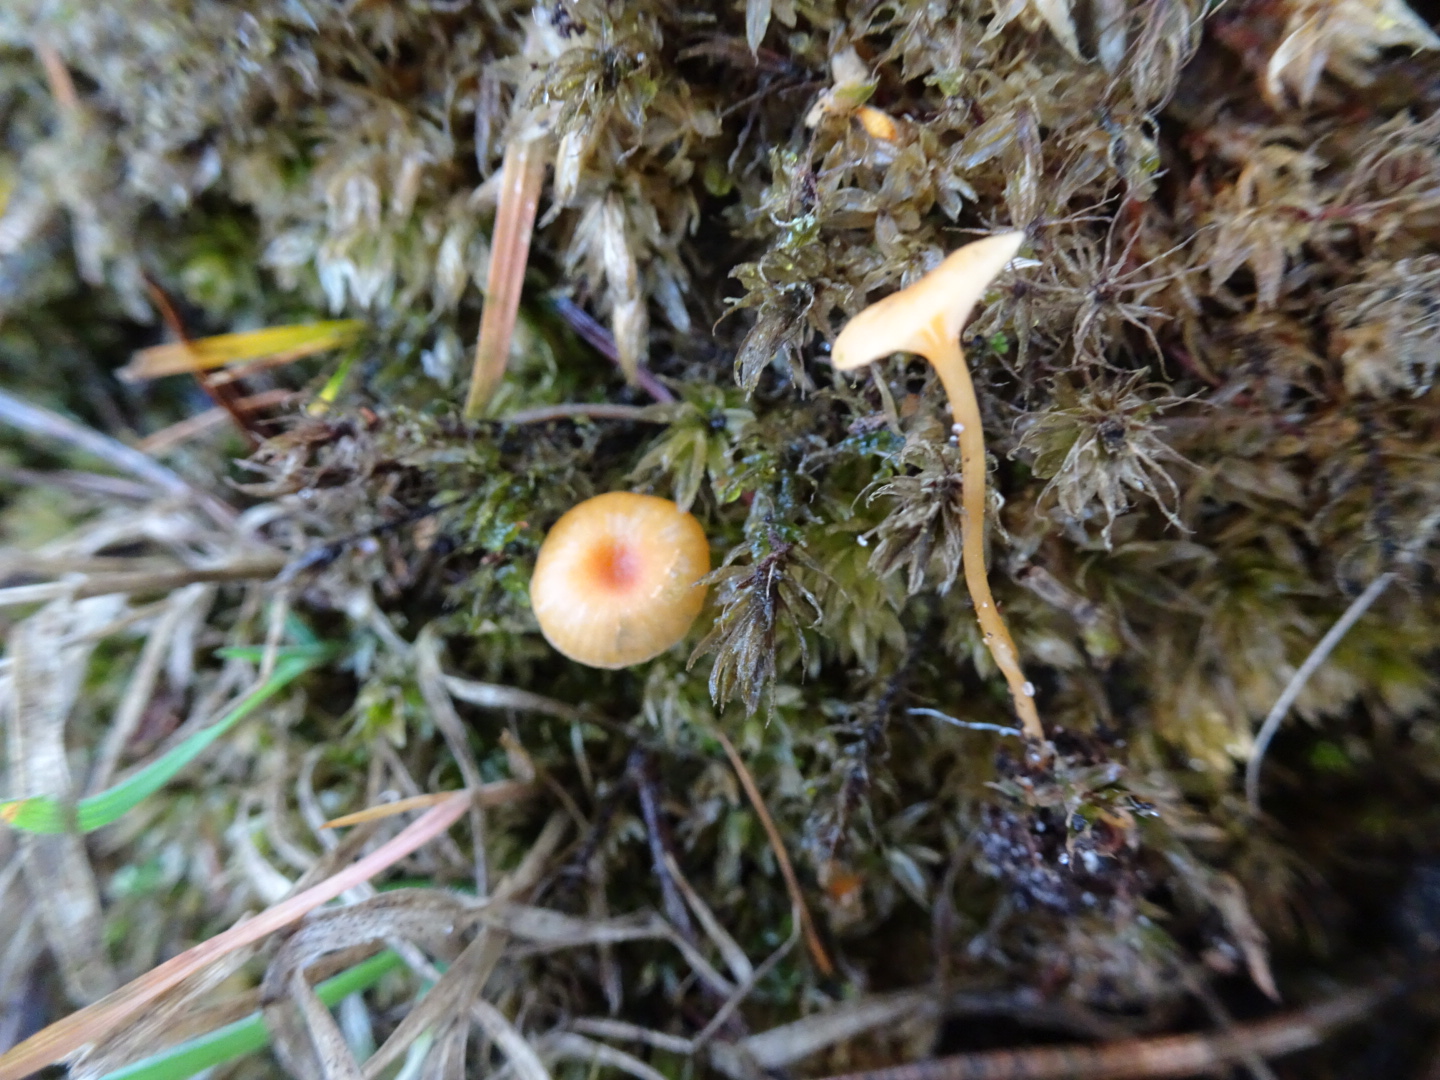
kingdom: Fungi
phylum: Basidiomycota
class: Agaricomycetes
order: Hymenochaetales
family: Rickenellaceae
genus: Rickenella
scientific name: Rickenella fibula
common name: orange mosnavlehat
